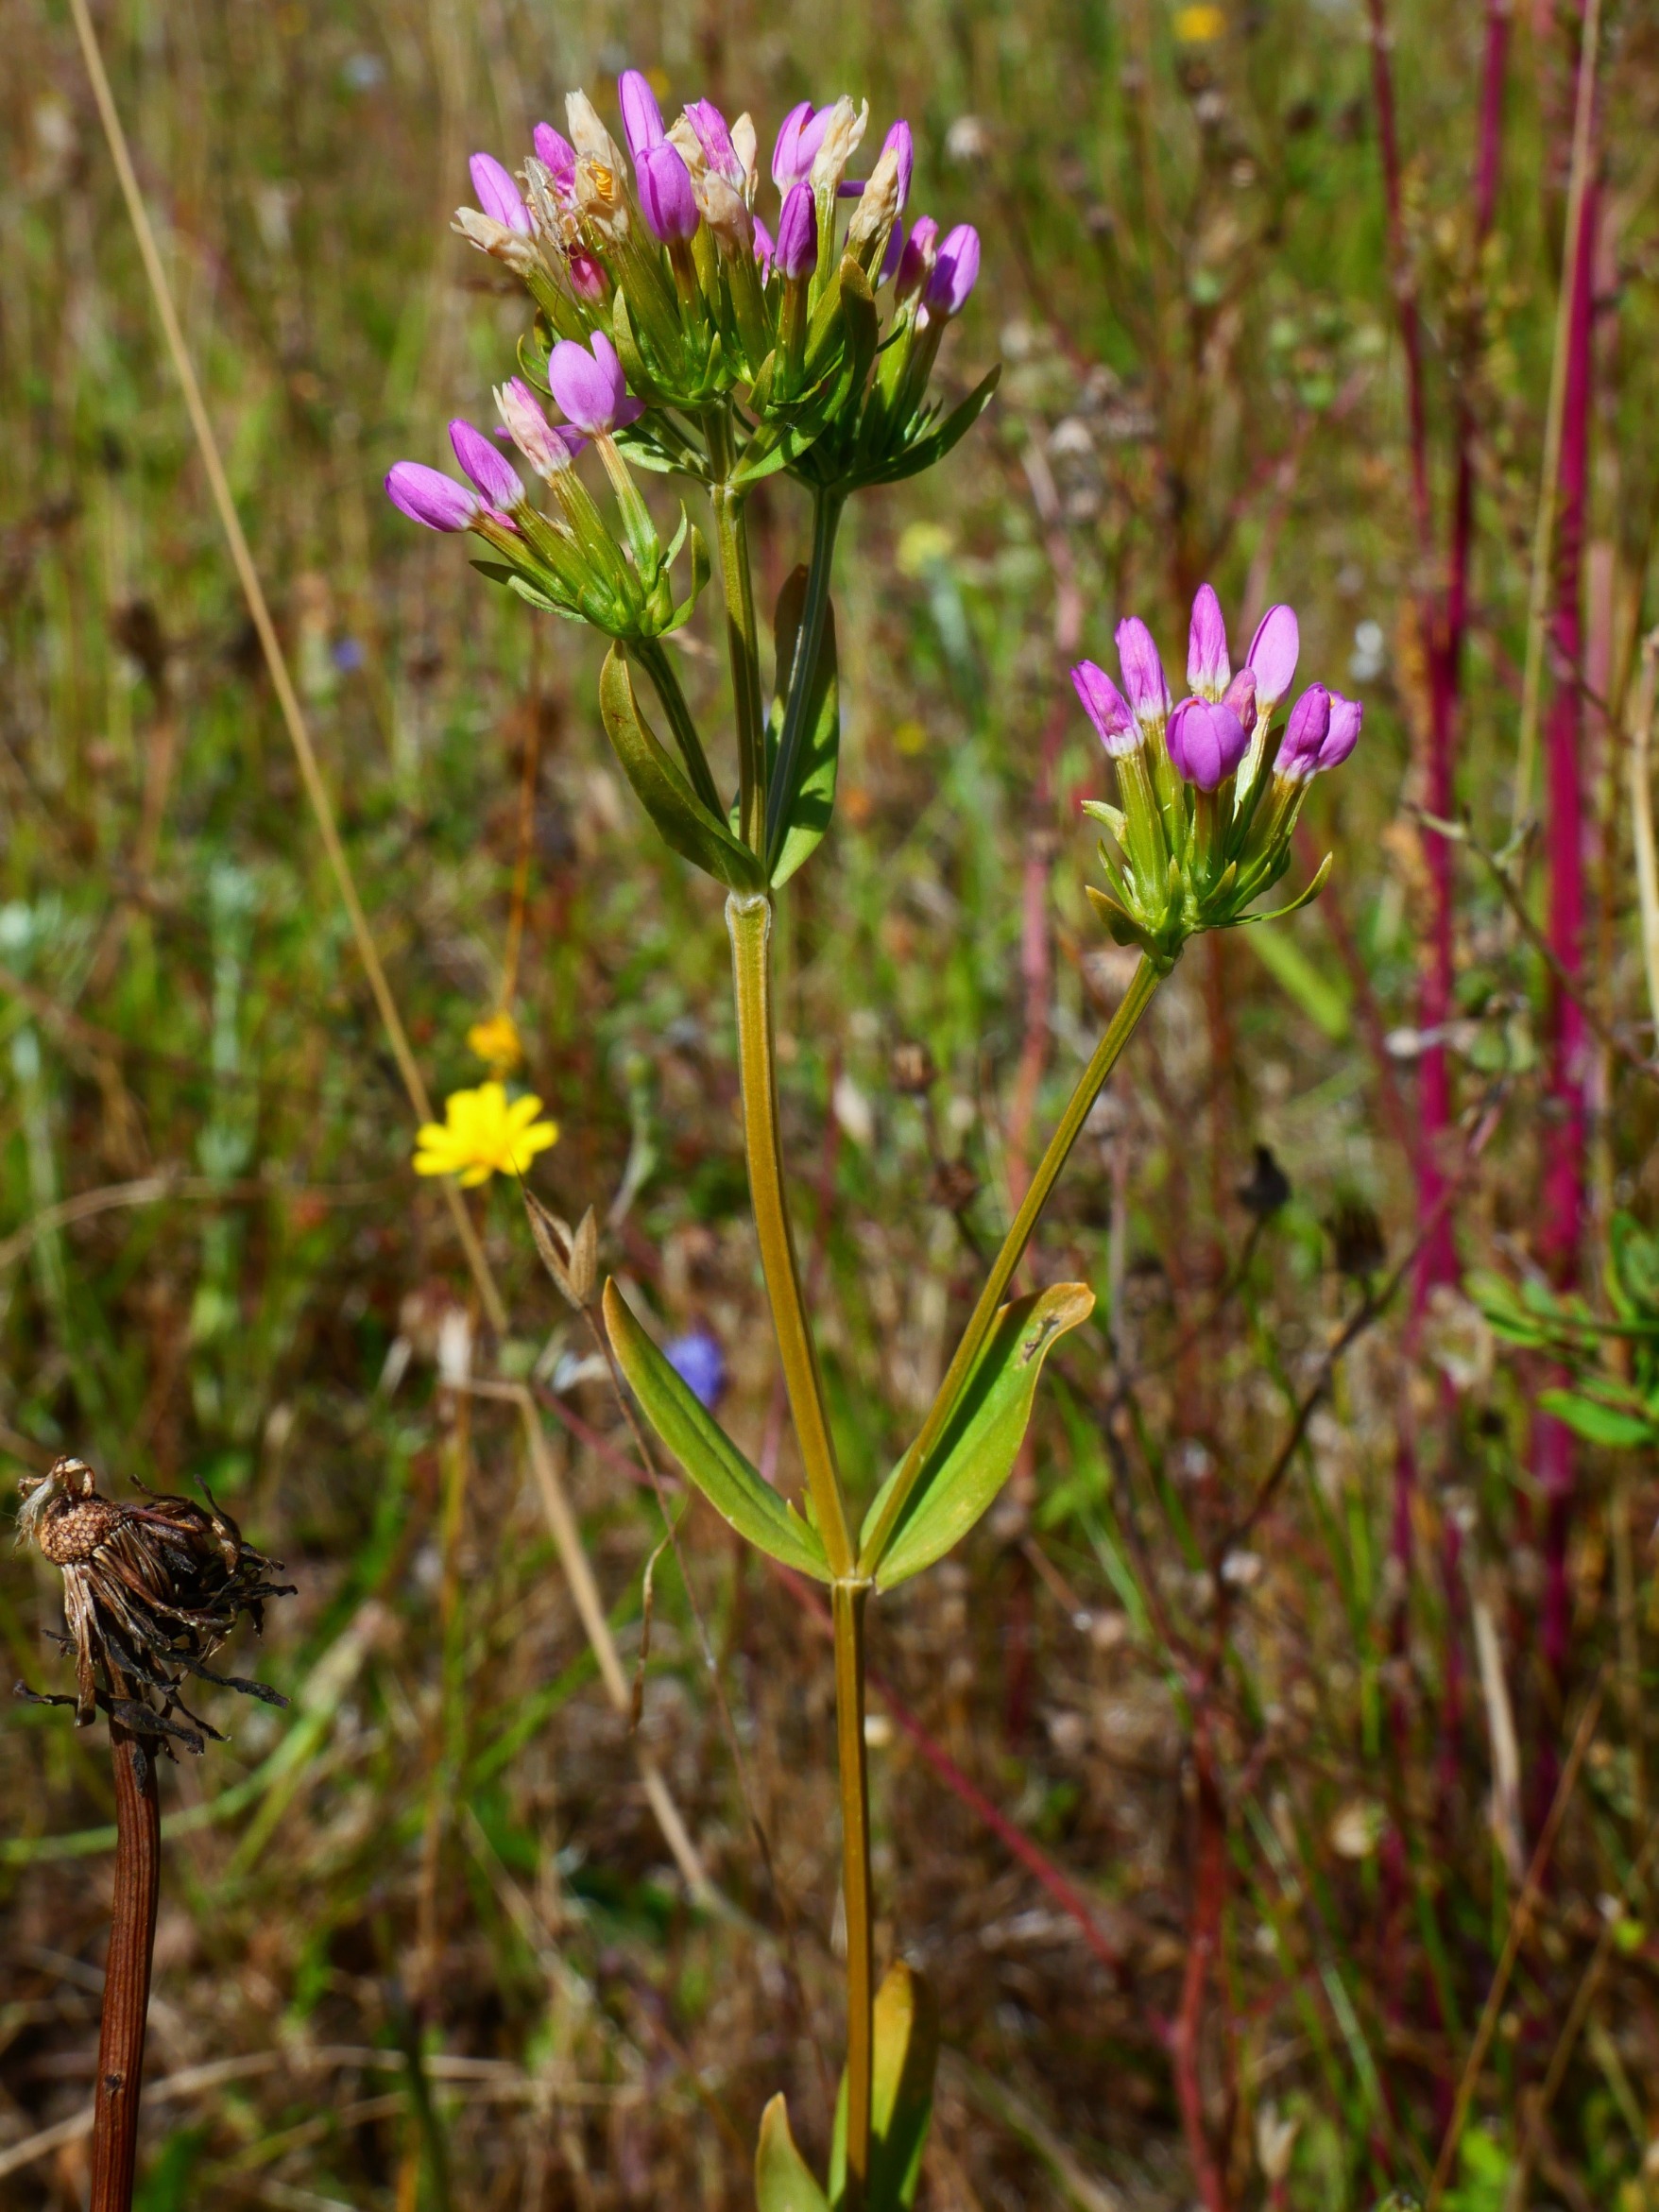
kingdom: Plantae
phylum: Tracheophyta
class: Magnoliopsida
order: Gentianales
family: Gentianaceae
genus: Centaurium
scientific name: Centaurium erythraea
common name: Mark-tusindgylden
